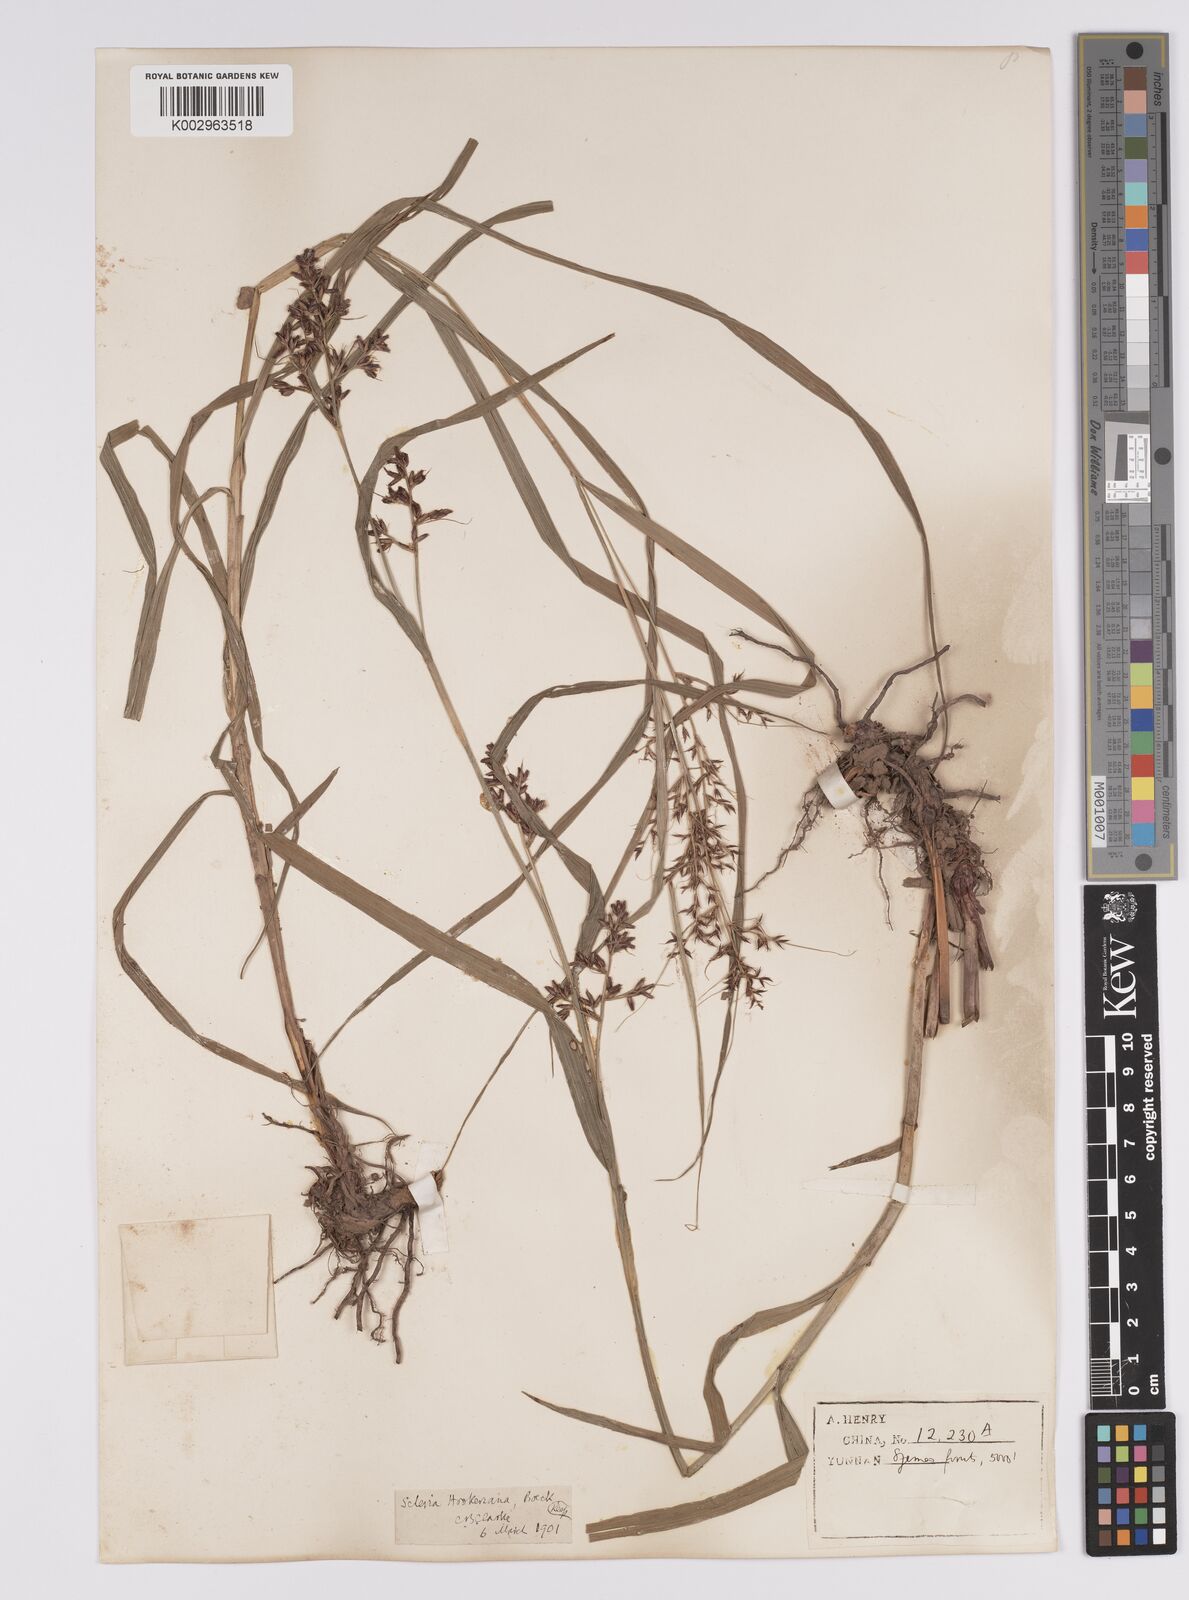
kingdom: Plantae
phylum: Tracheophyta
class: Liliopsida
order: Poales
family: Cyperaceae
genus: Scleria
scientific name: Scleria terrestris
